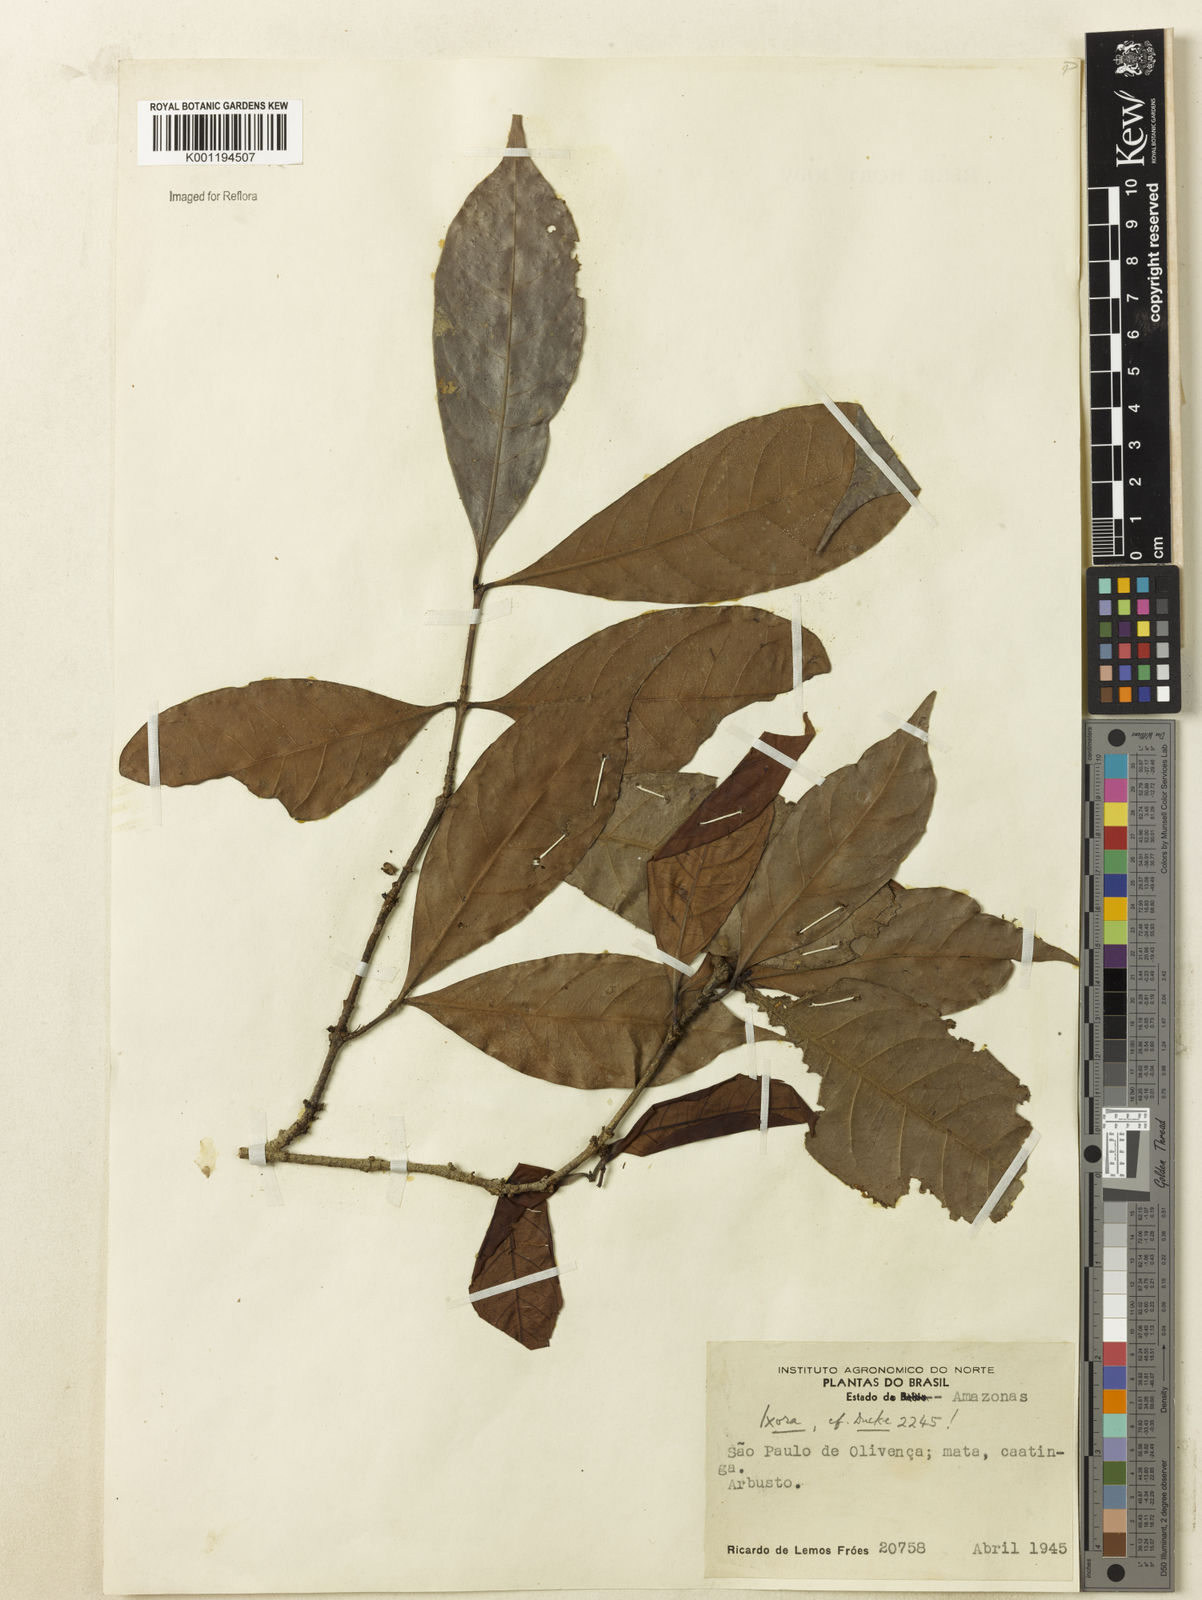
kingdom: Plantae
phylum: Tracheophyta
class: Magnoliopsida
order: Gentianales
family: Rubiaceae
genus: Ixora
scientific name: Ixora
